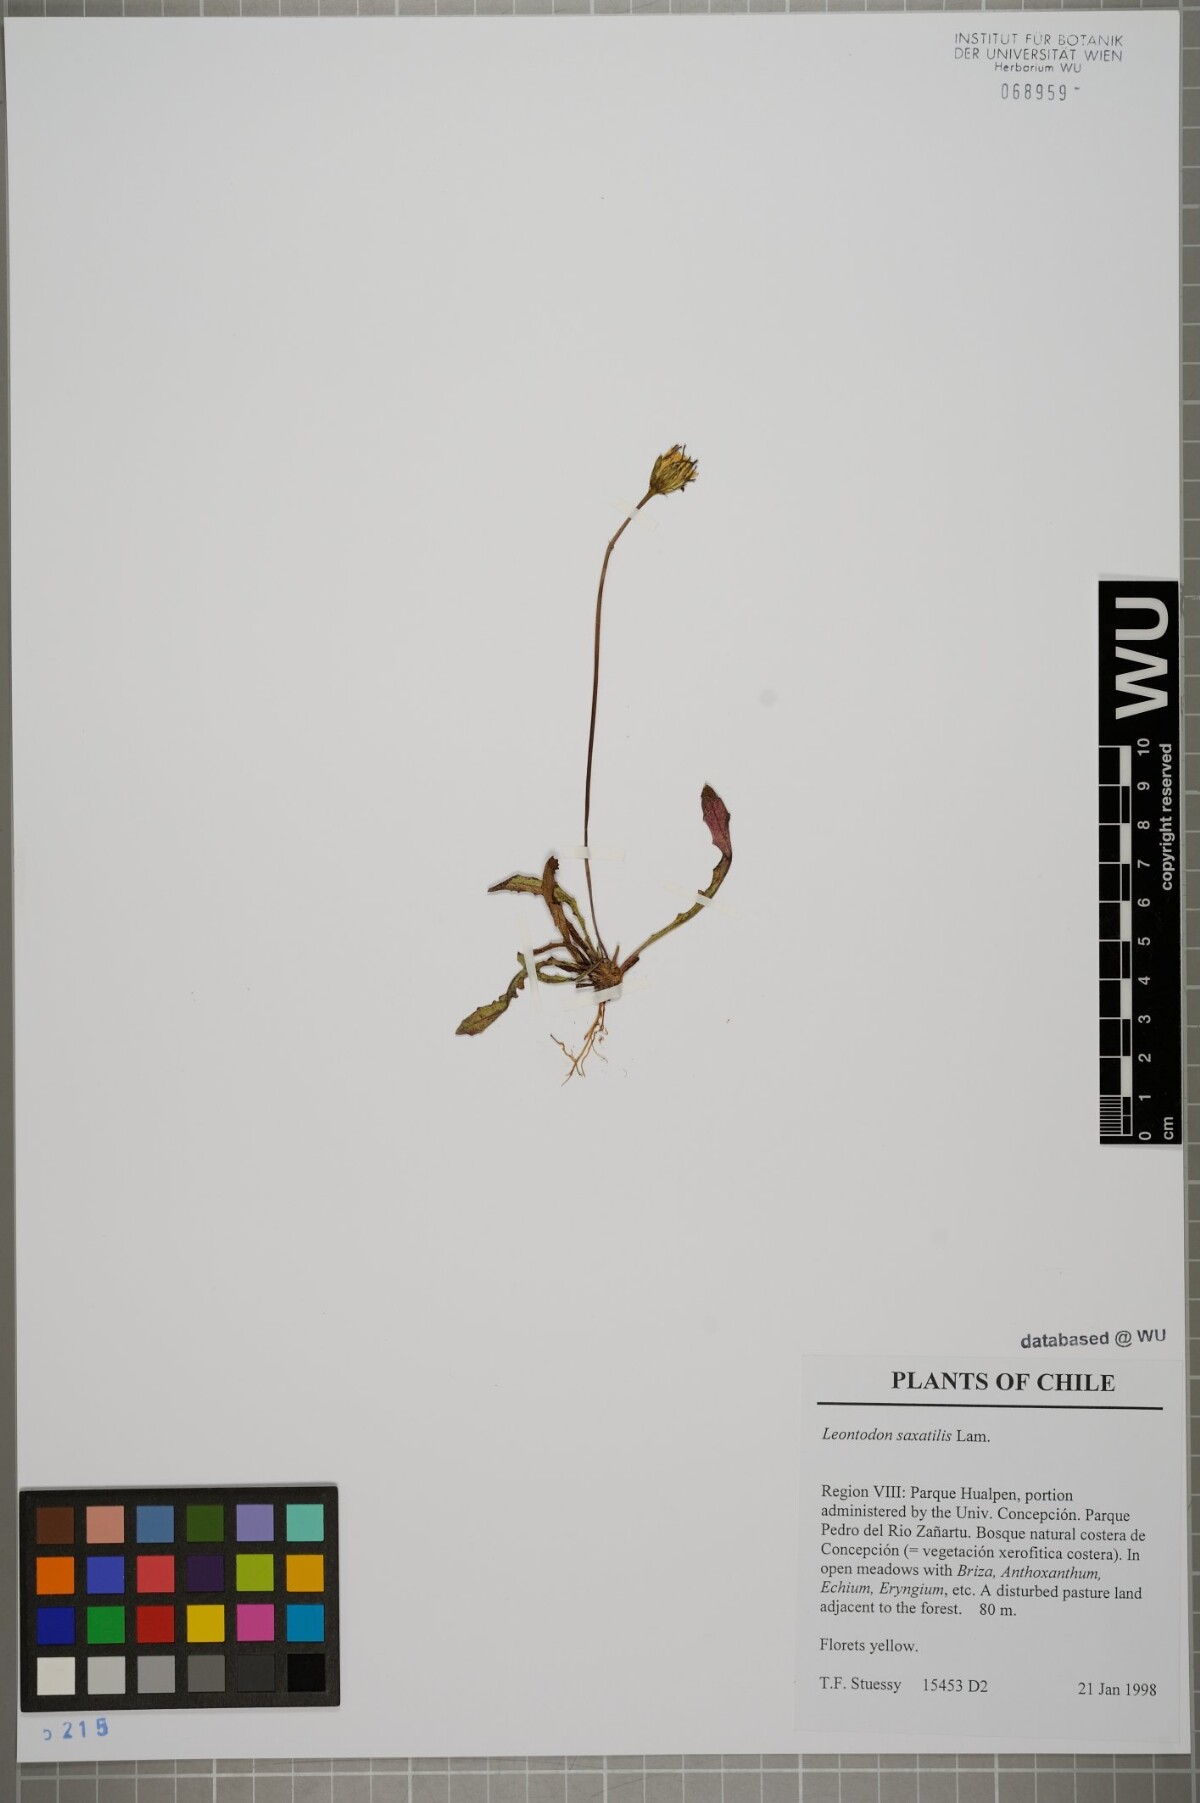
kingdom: Plantae
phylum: Tracheophyta
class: Magnoliopsida
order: Asterales
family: Asteraceae
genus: Thrincia
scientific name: Thrincia saxatilis
